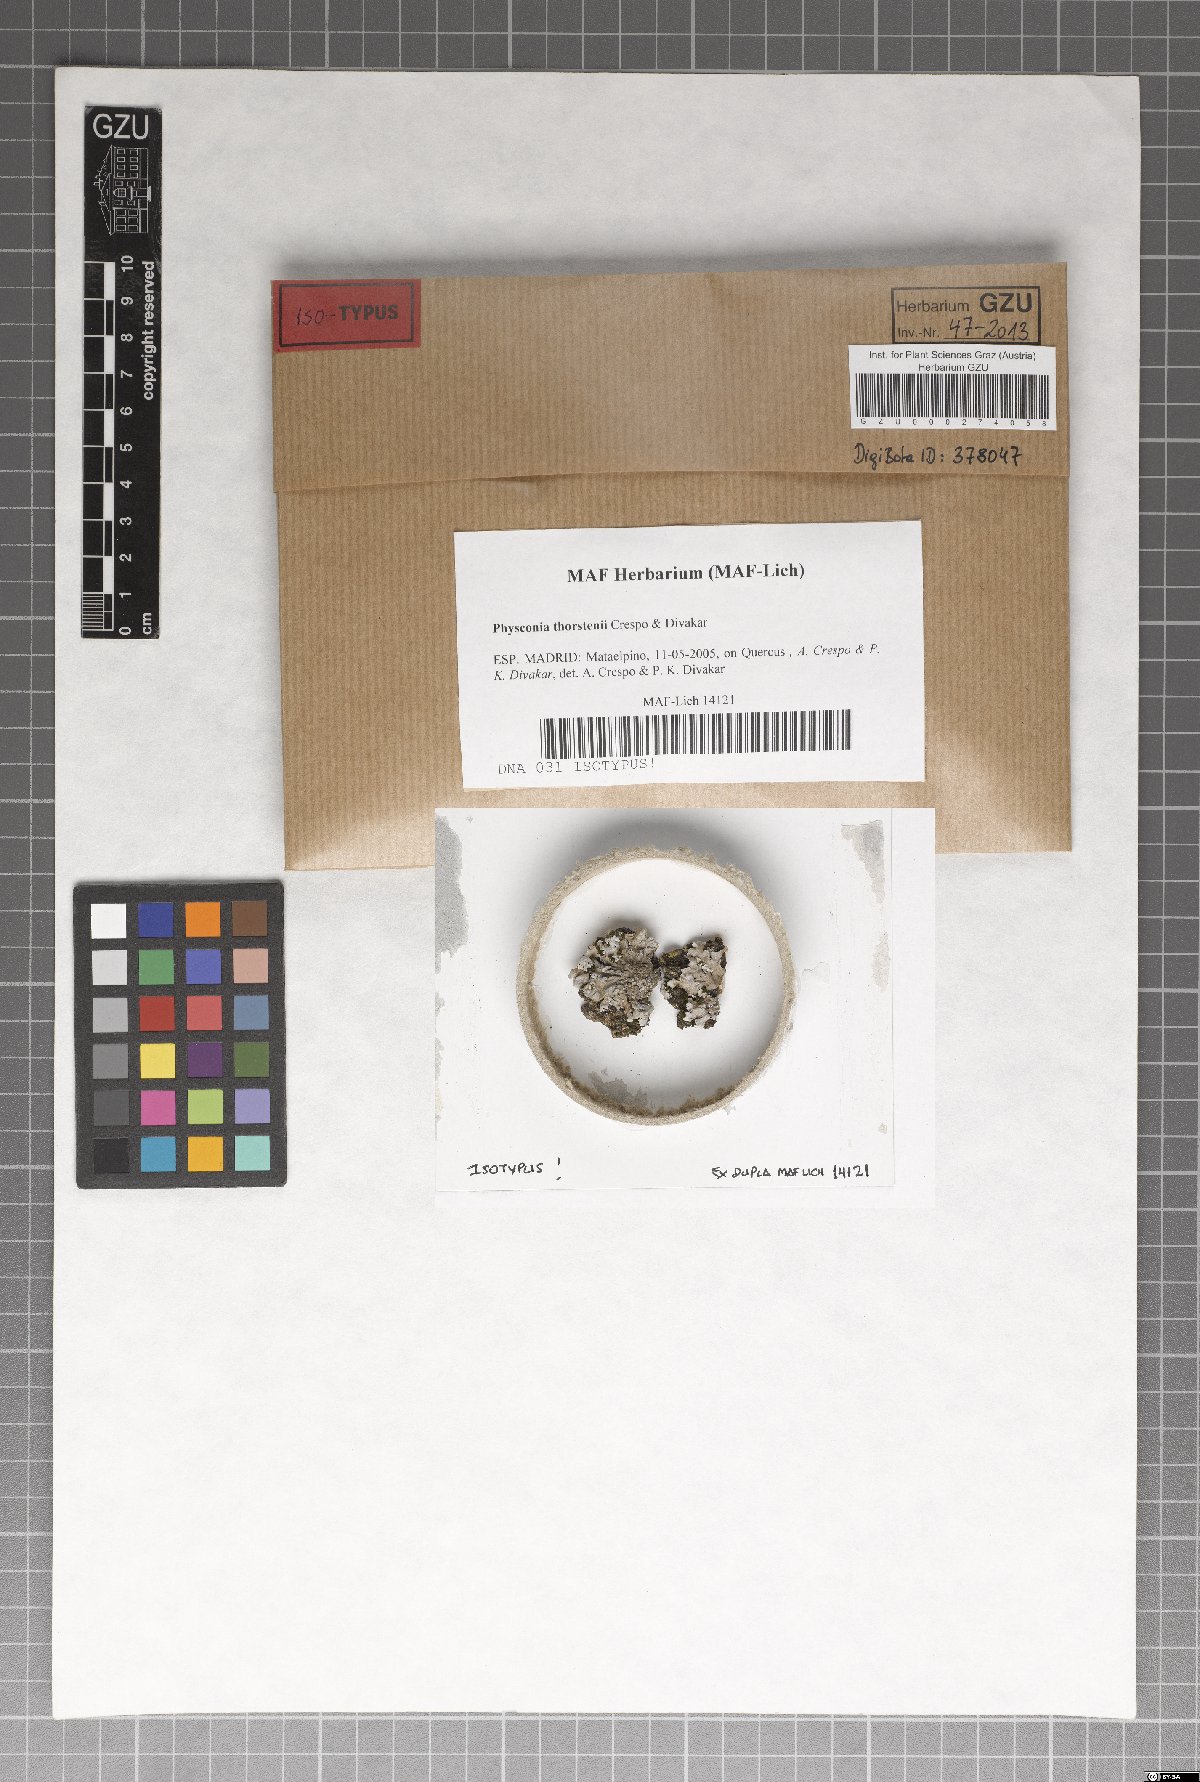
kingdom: Fungi
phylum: Ascomycota
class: Lecanoromycetes
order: Caliciales
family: Physciaceae
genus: Physconia
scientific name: Physconia thorstenii
